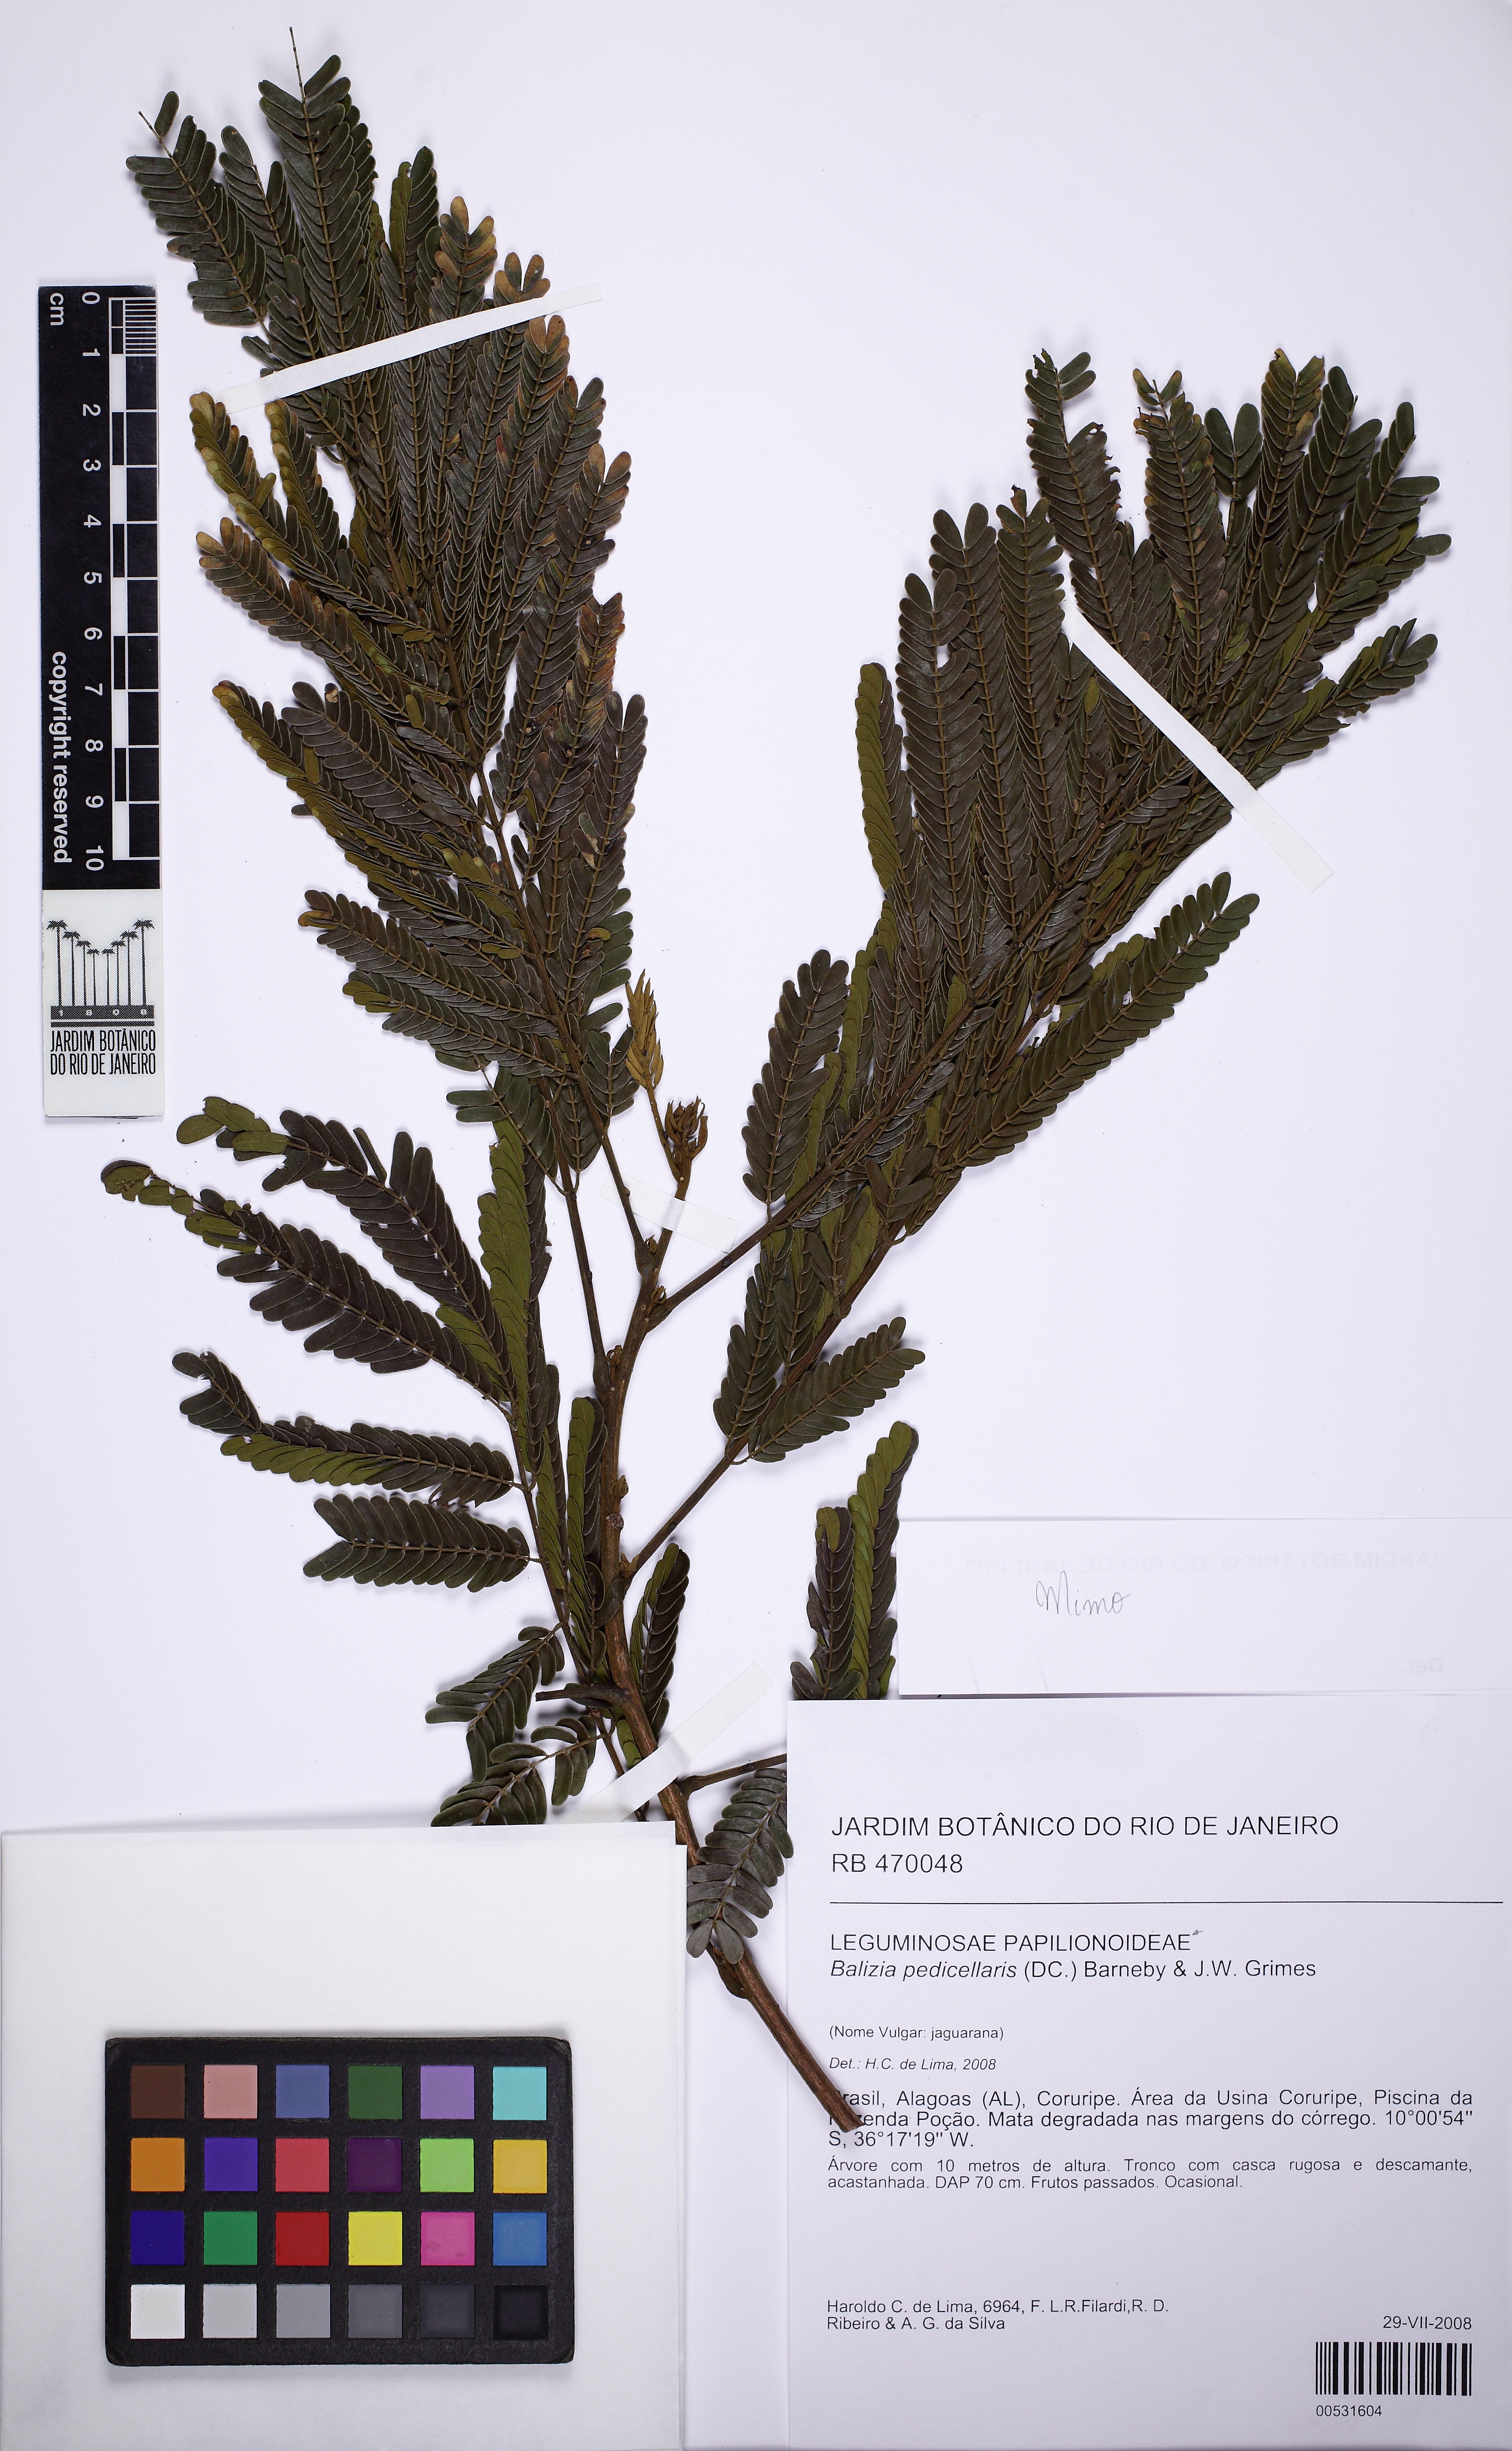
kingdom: Plantae
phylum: Tracheophyta
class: Magnoliopsida
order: Fabales
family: Fabaceae
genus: Balizia
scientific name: Balizia pedicellaris
